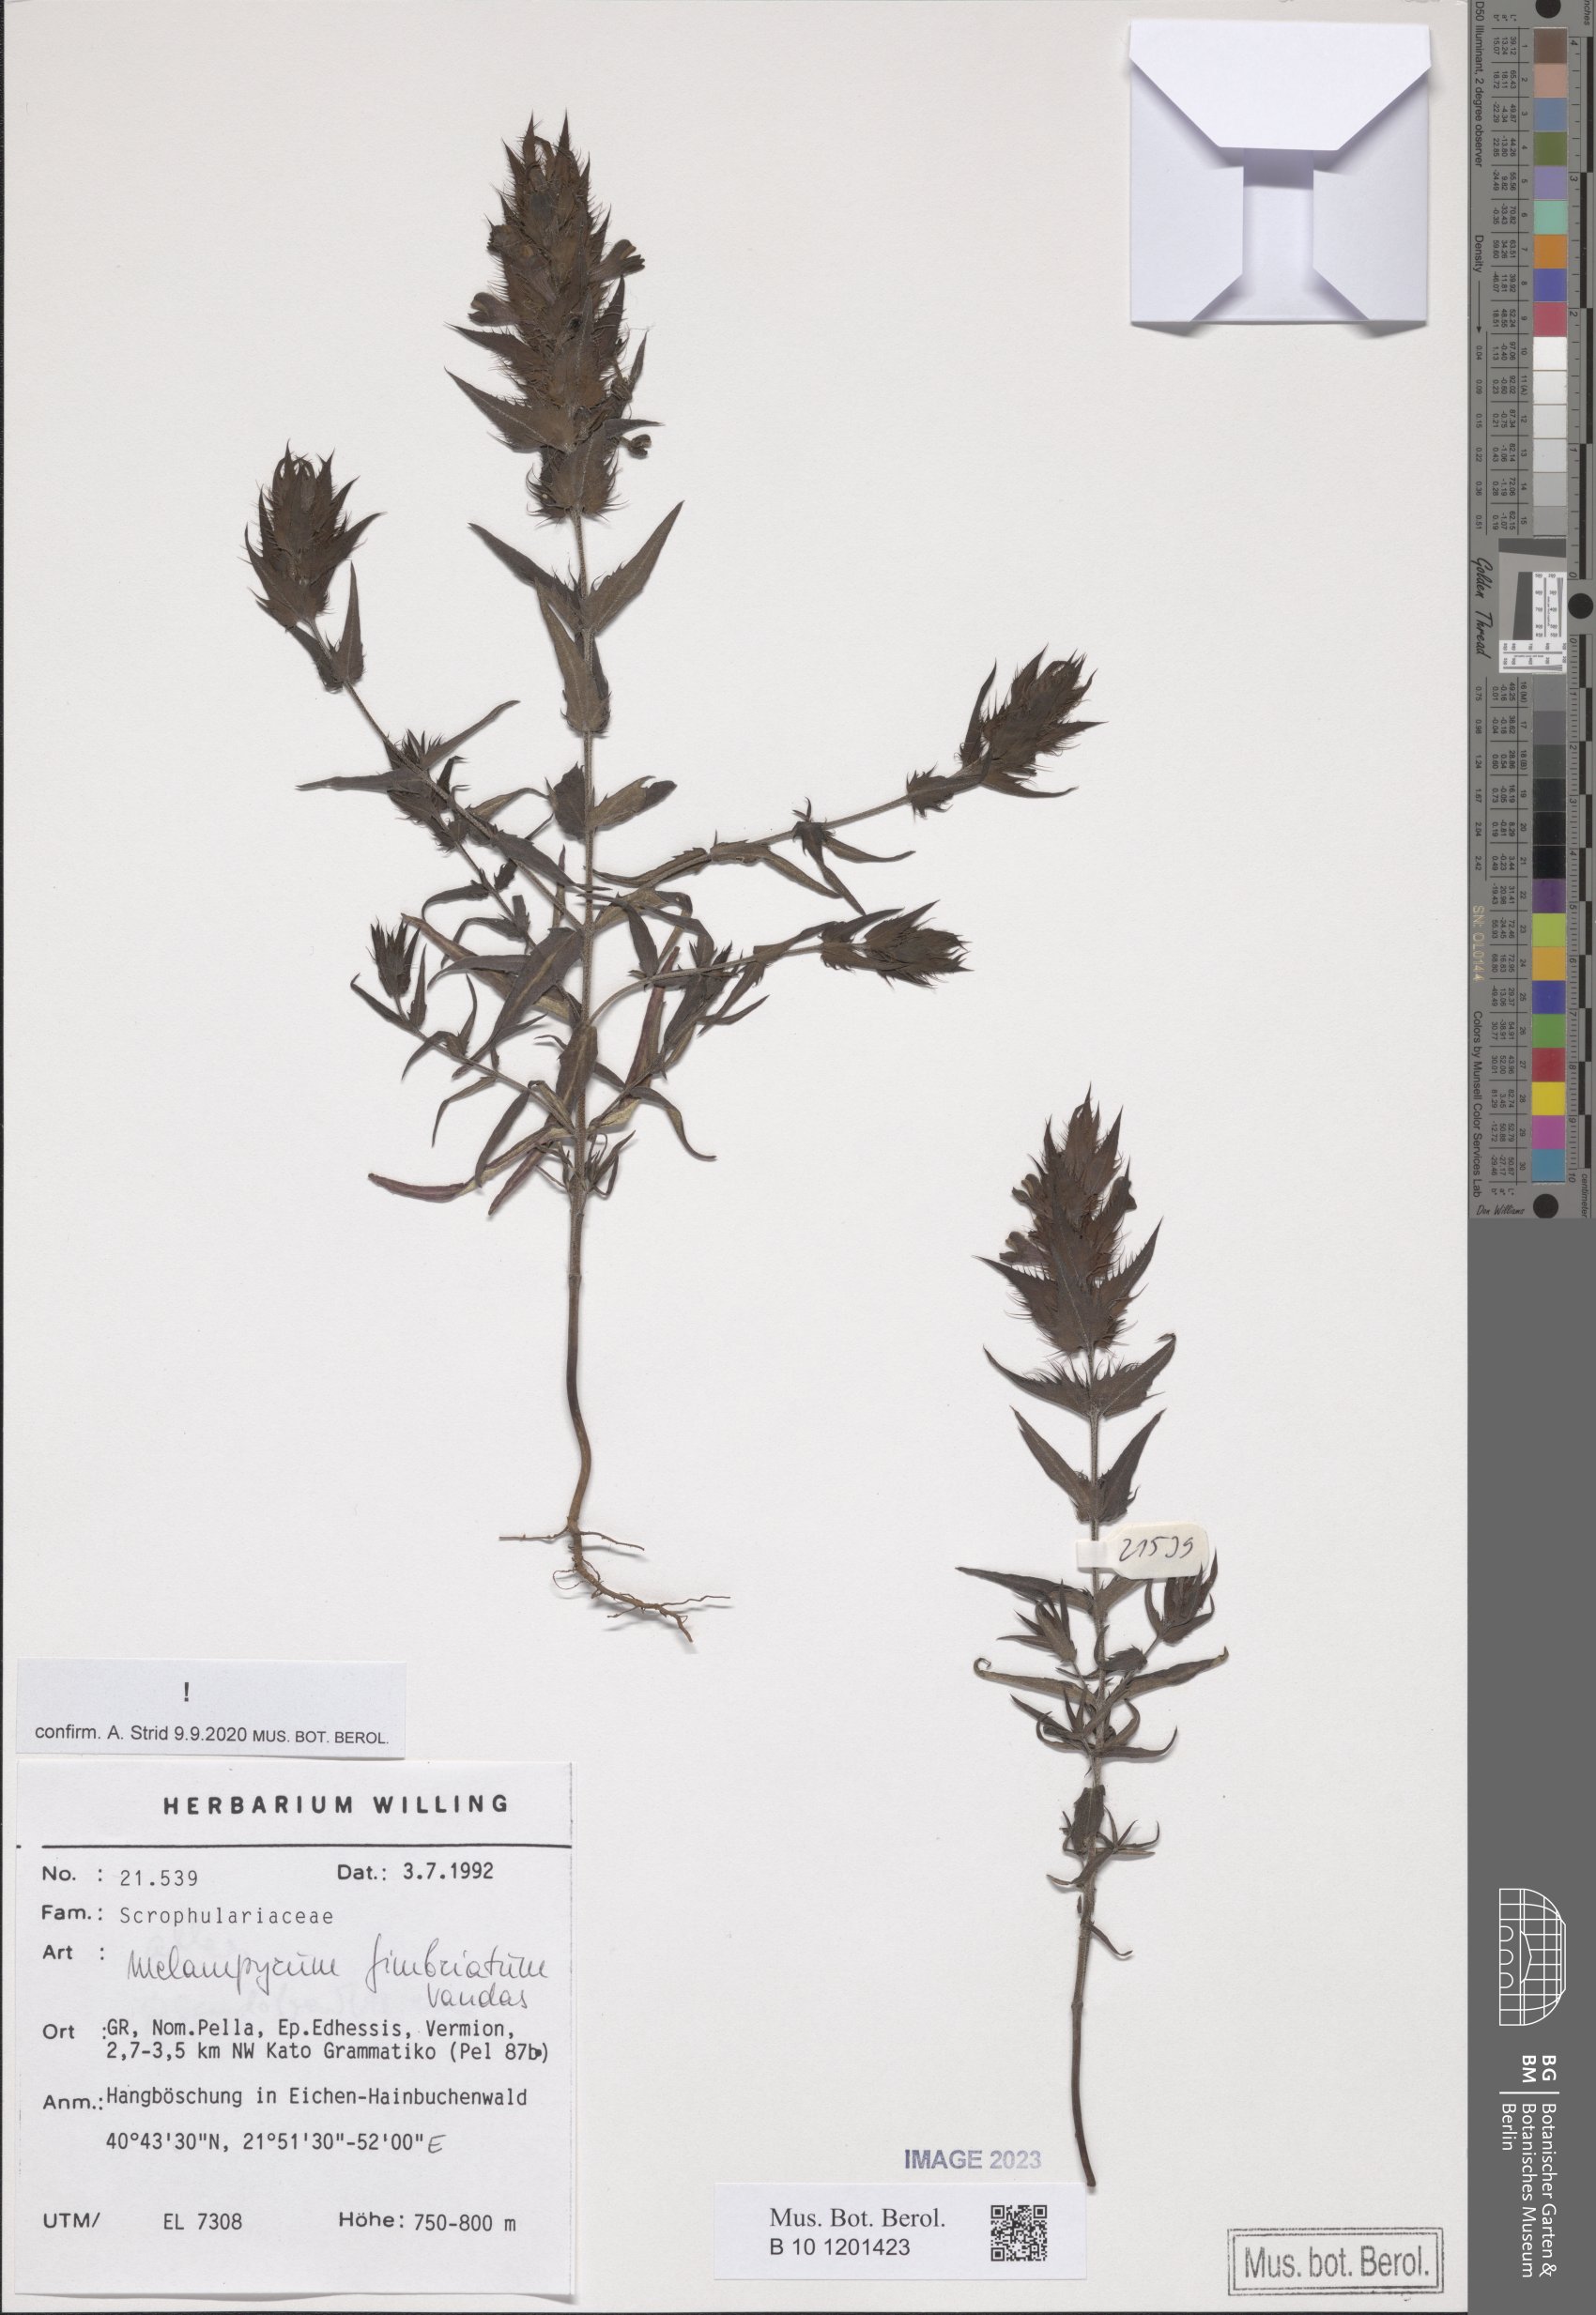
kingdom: Plantae
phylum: Tracheophyta
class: Magnoliopsida
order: Lamiales
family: Orobanchaceae
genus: Melampyrum
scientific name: Melampyrum fimbriatum
